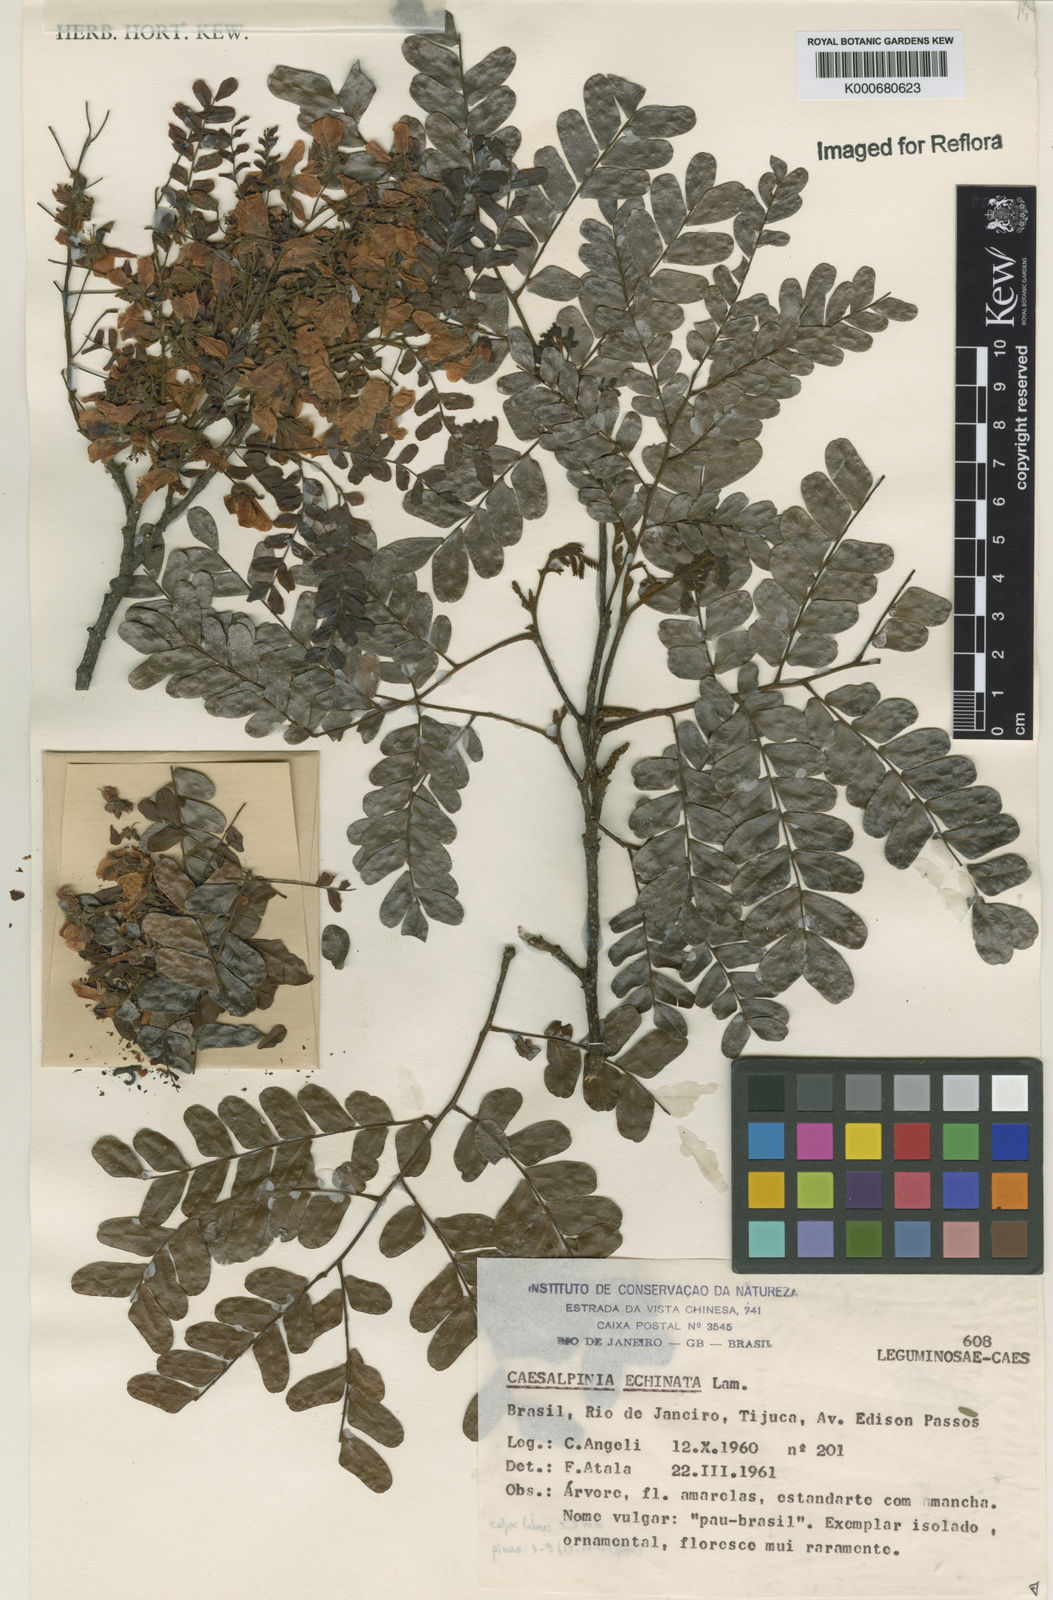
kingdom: Plantae
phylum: Tracheophyta
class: Magnoliopsida
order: Fabales
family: Fabaceae
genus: Paubrasilia
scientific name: Paubrasilia echinata
